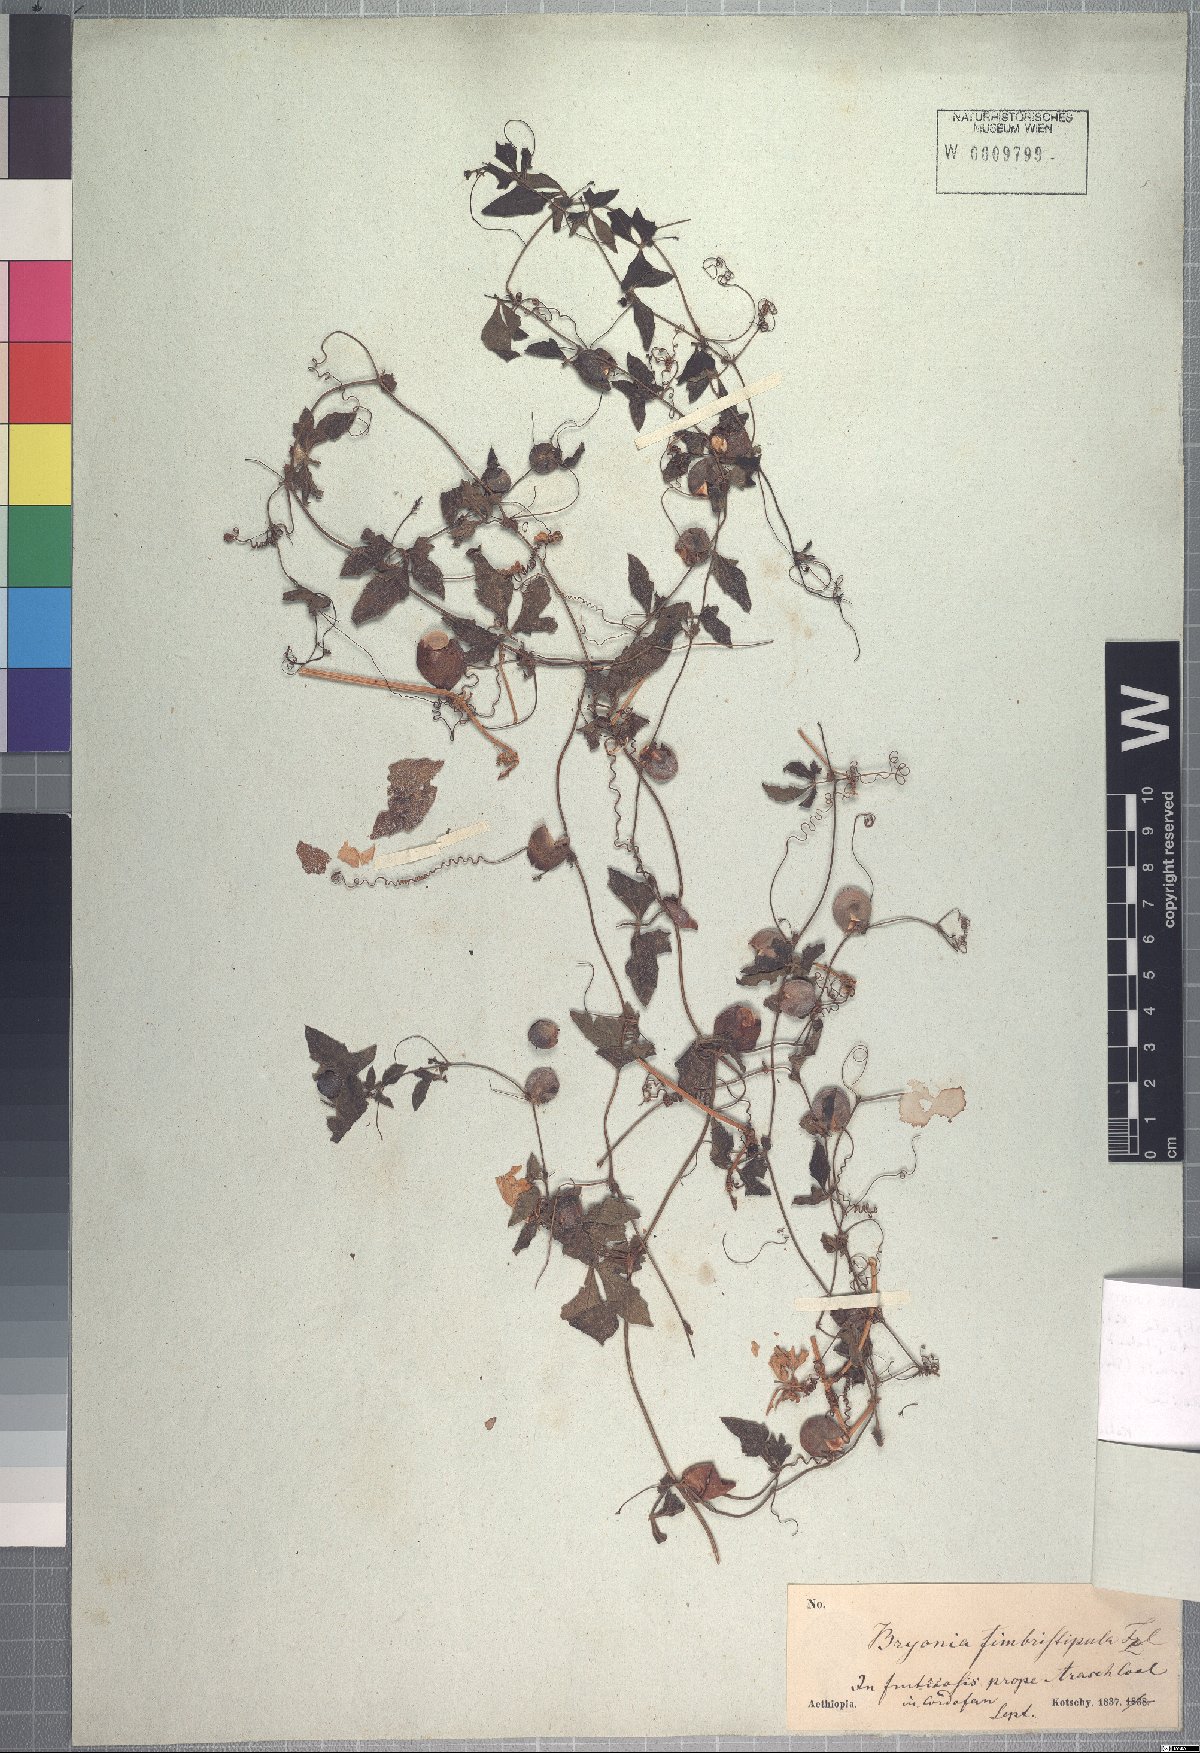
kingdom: Plantae
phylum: Tracheophyta
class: Magnoliopsida
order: Cucurbitales
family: Cucurbitaceae
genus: Blastania
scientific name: Blastania cerasiformis
